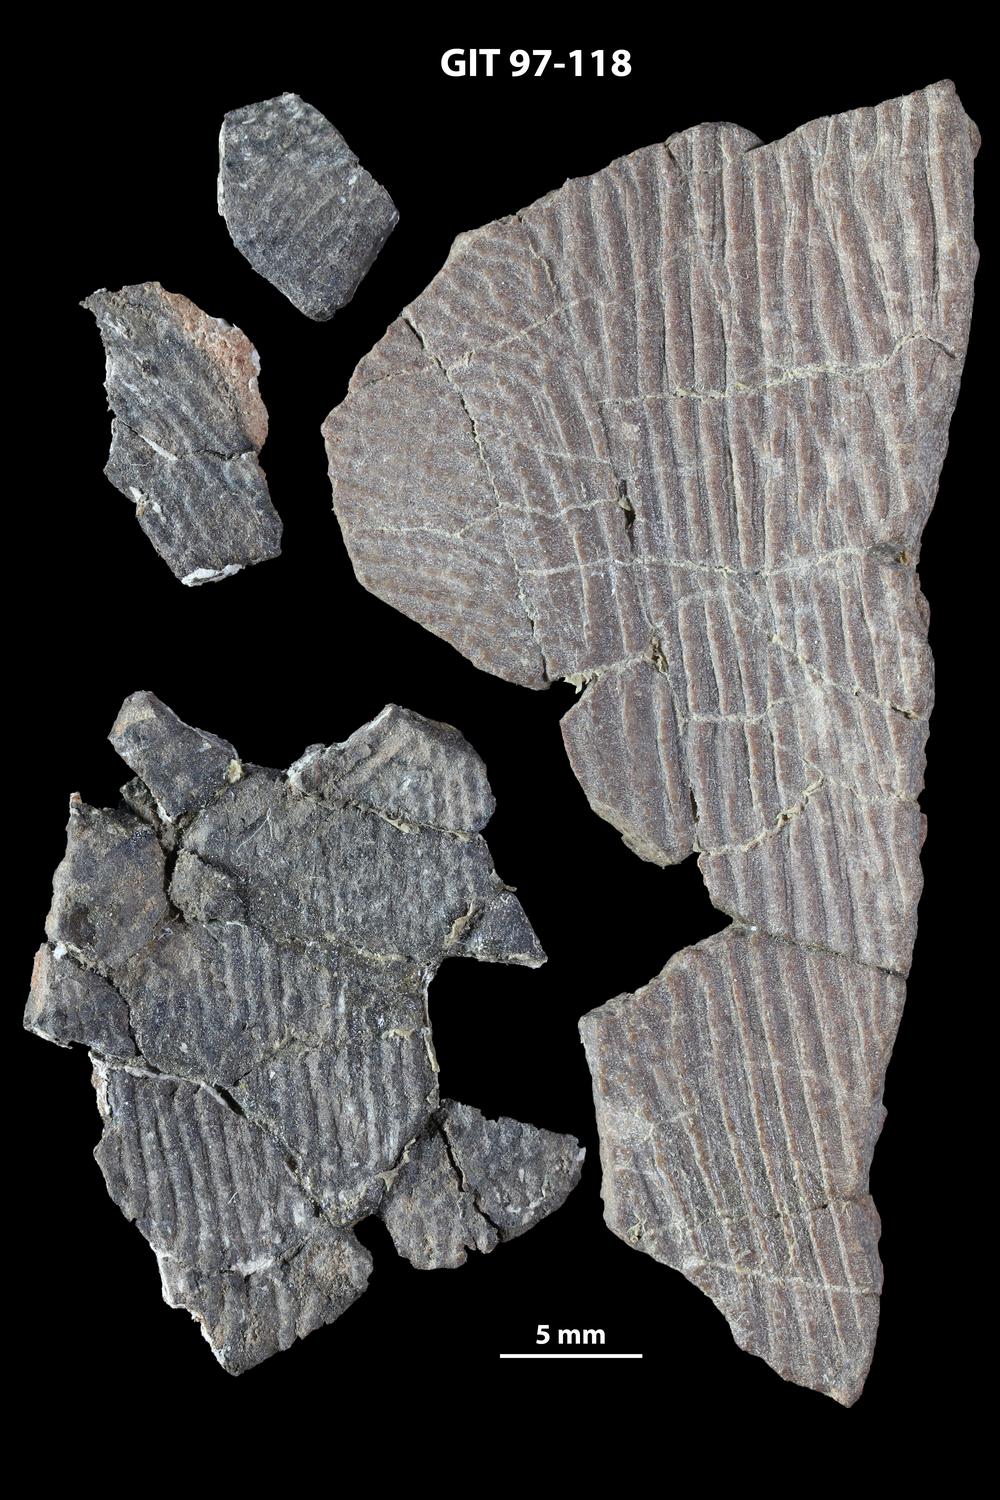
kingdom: Animalia
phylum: Chordata
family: Holonematidae
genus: Holonema
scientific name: Holonema
